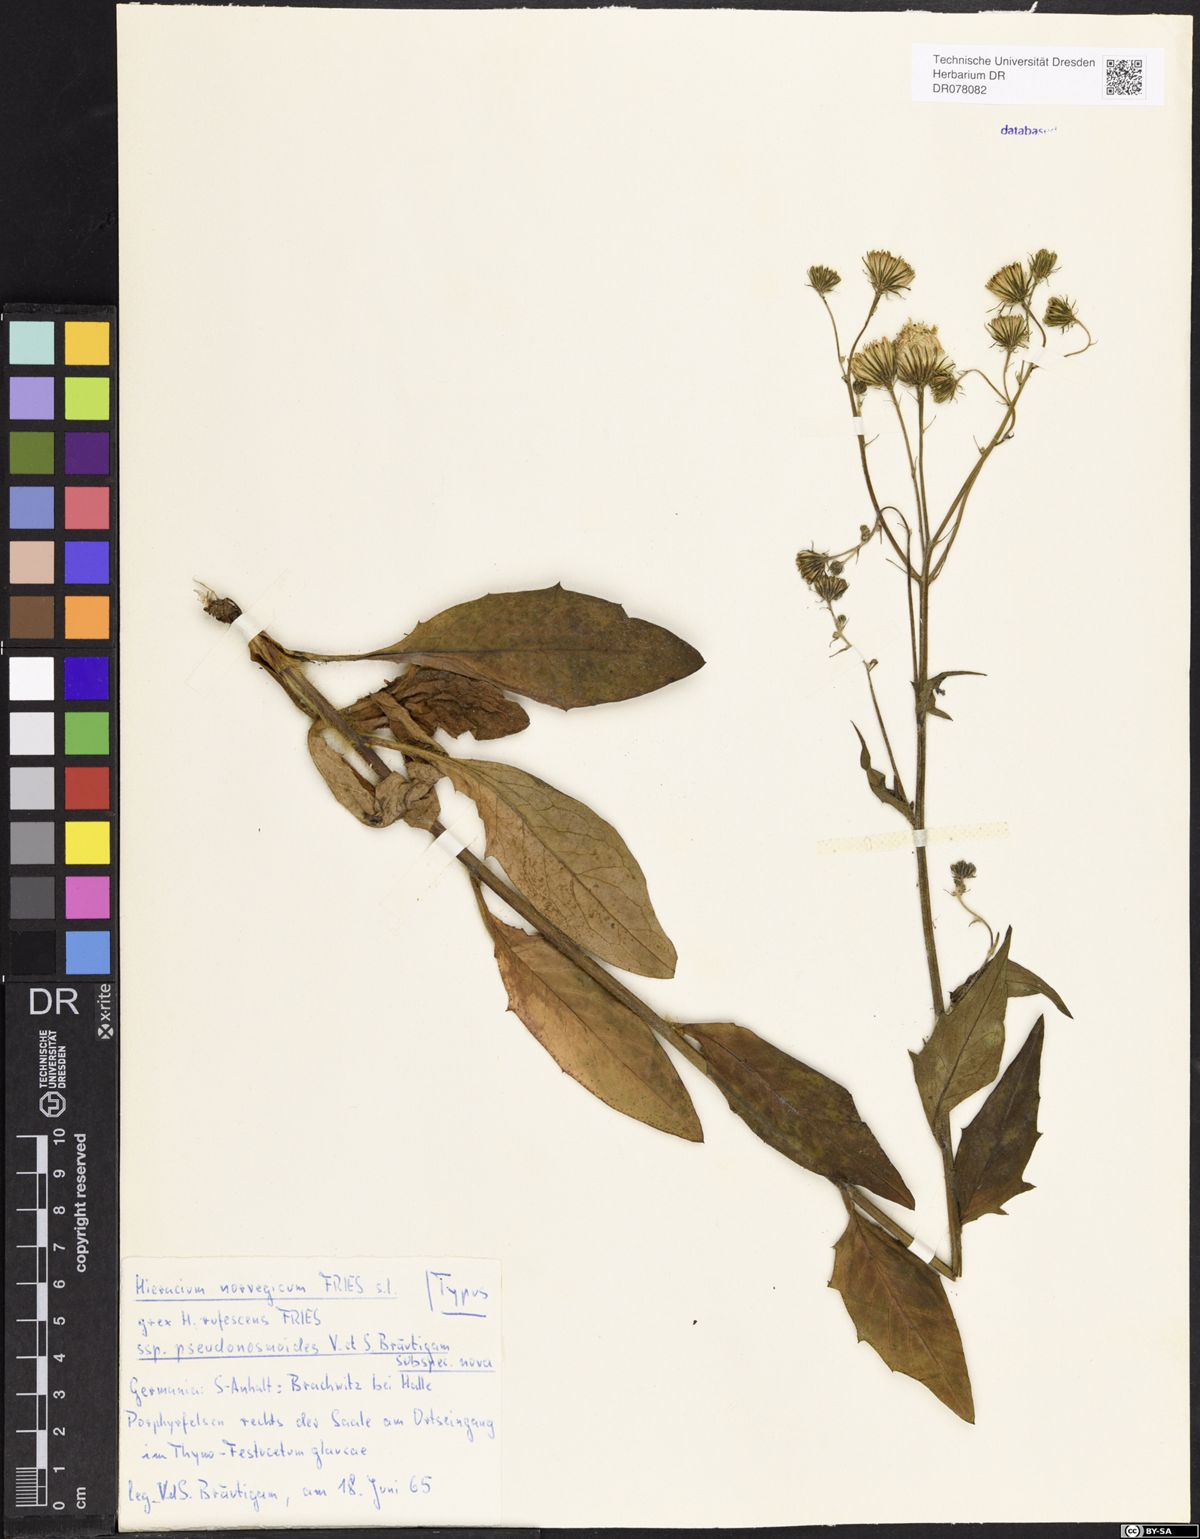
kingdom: Plantae
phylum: Tracheophyta
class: Magnoliopsida
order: Asterales
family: Asteraceae
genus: Hieracium
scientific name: Hieracium norvegicum
